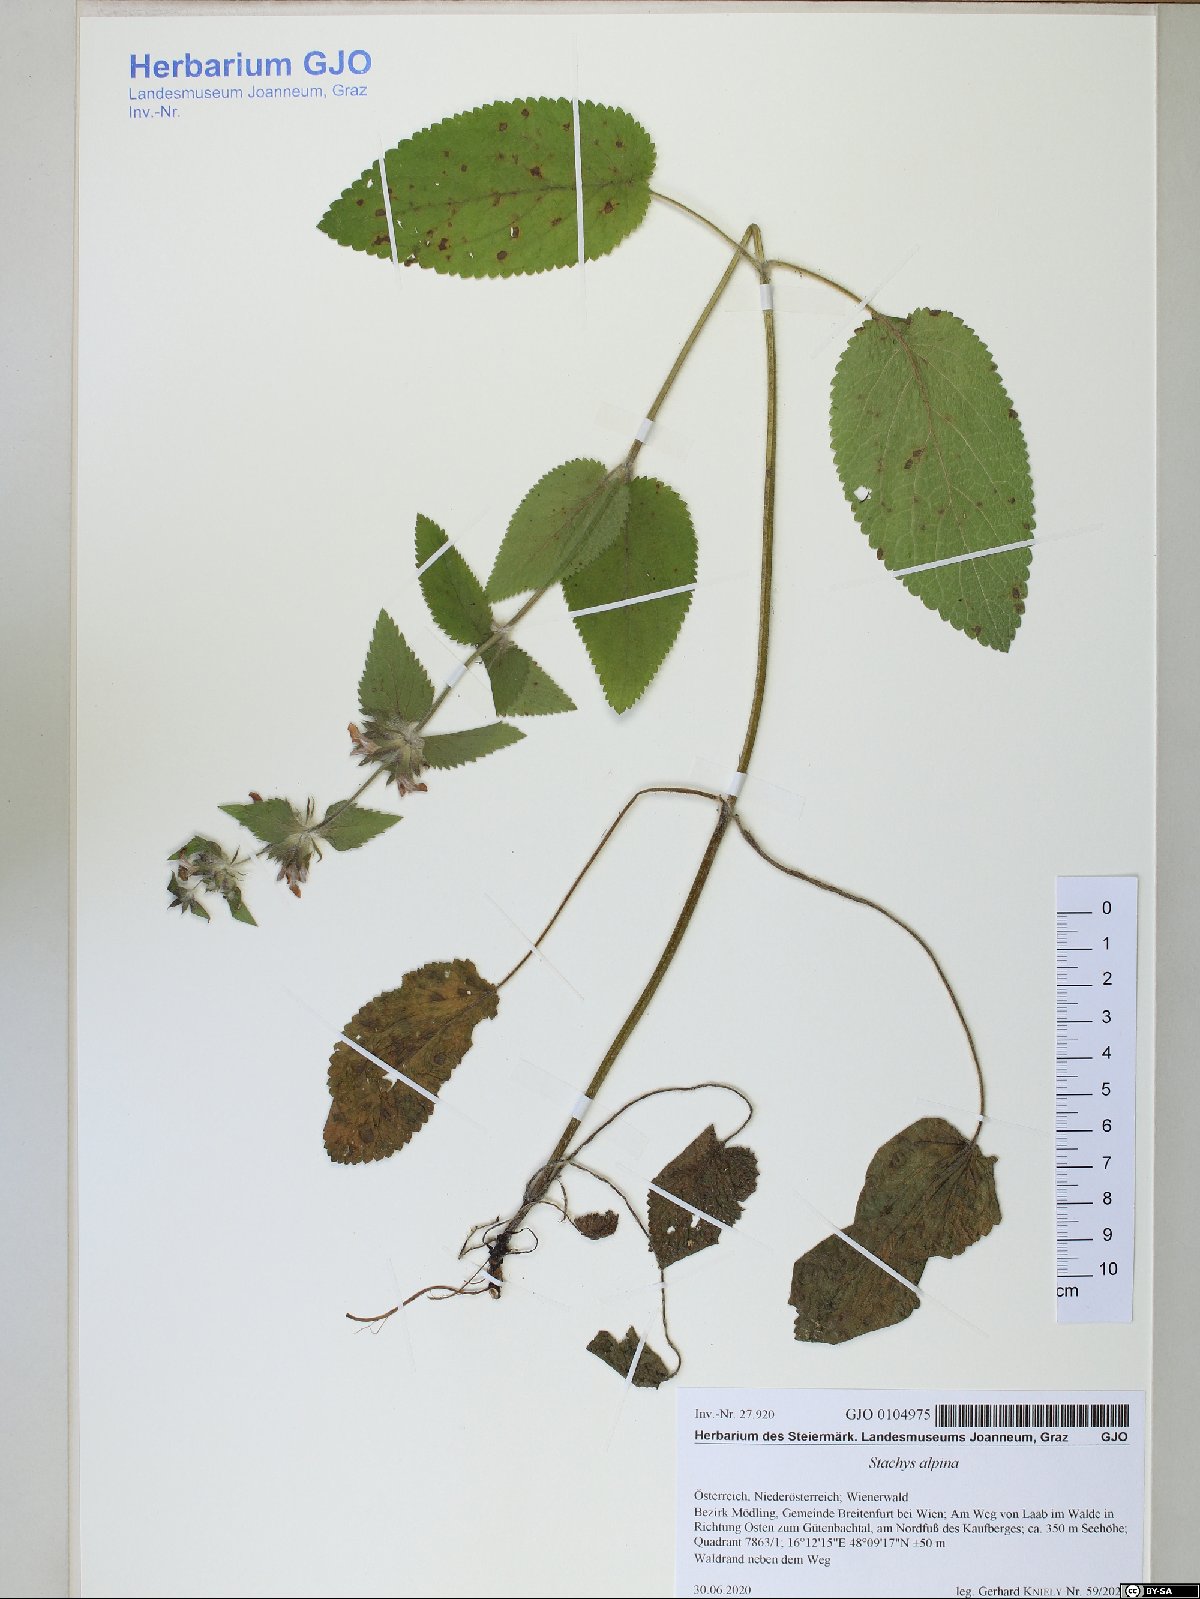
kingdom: Plantae
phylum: Tracheophyta
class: Magnoliopsida
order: Lamiales
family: Lamiaceae
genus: Stachys
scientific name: Stachys alpina
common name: Limestone woundwort
